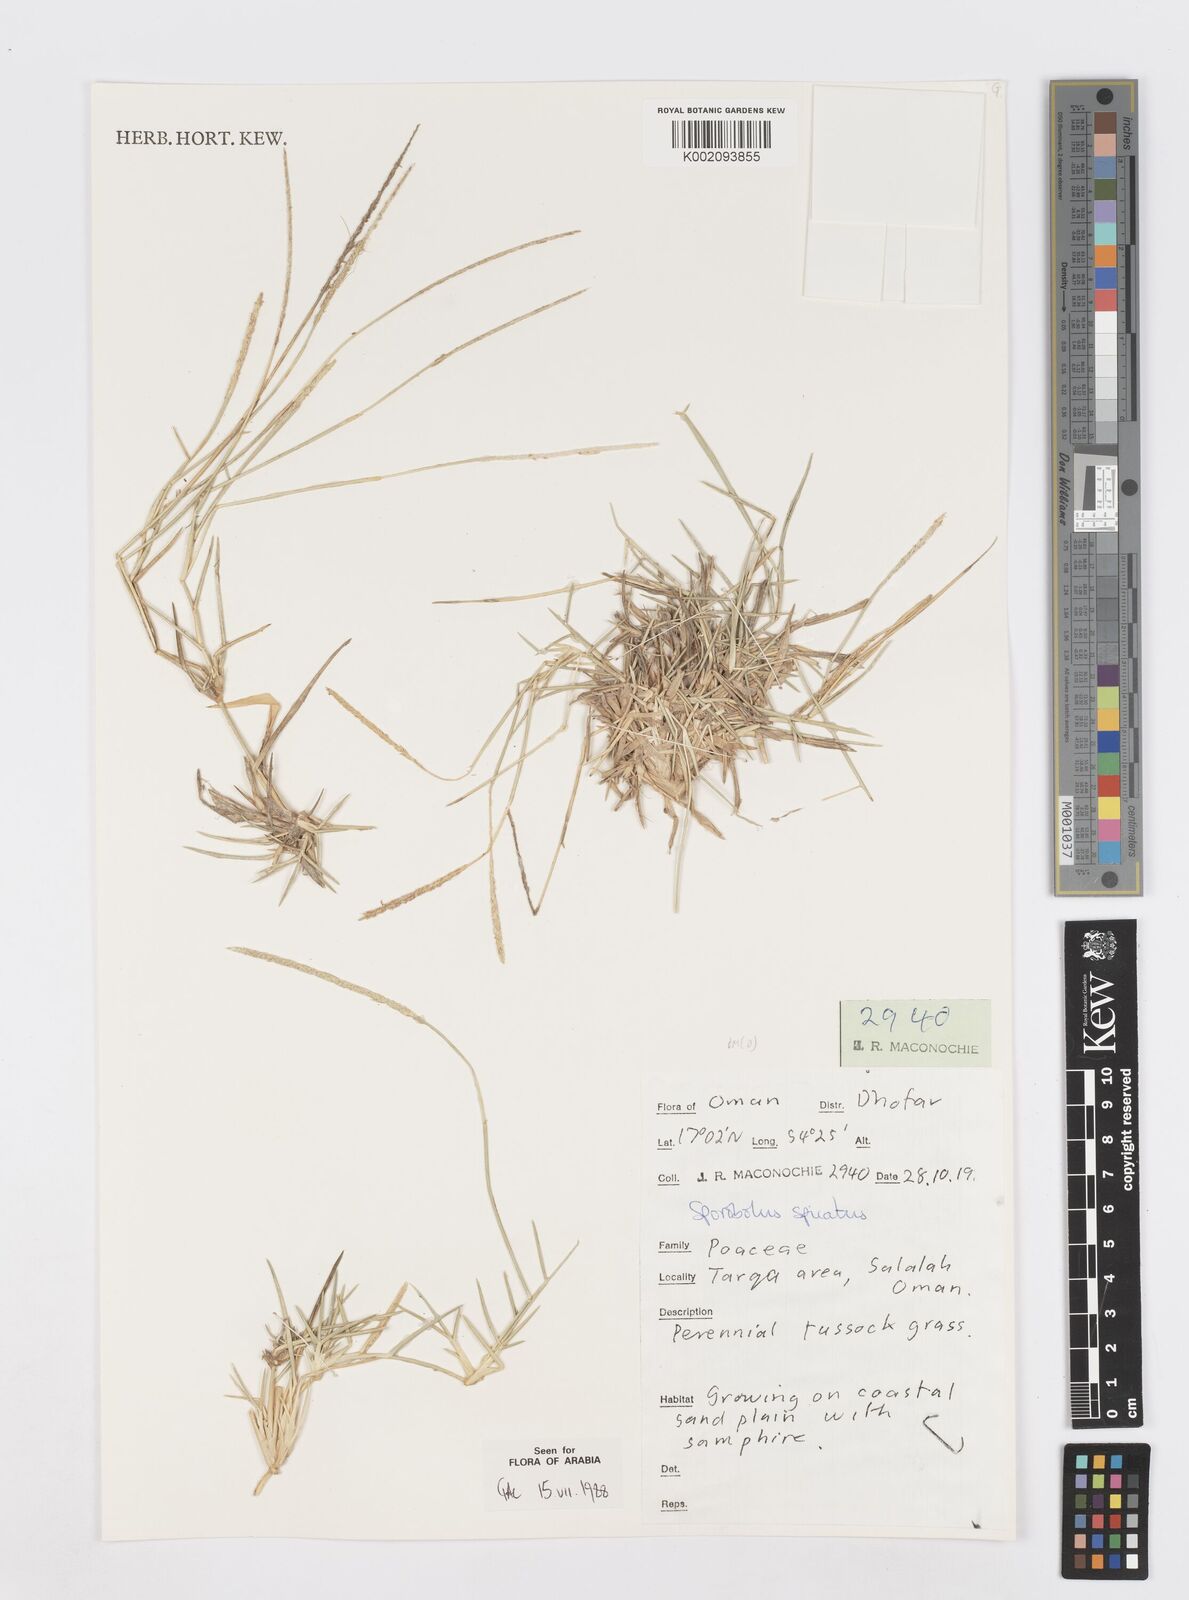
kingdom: Plantae
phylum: Tracheophyta
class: Liliopsida
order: Poales
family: Poaceae
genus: Sporobolus
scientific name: Sporobolus spicatus
